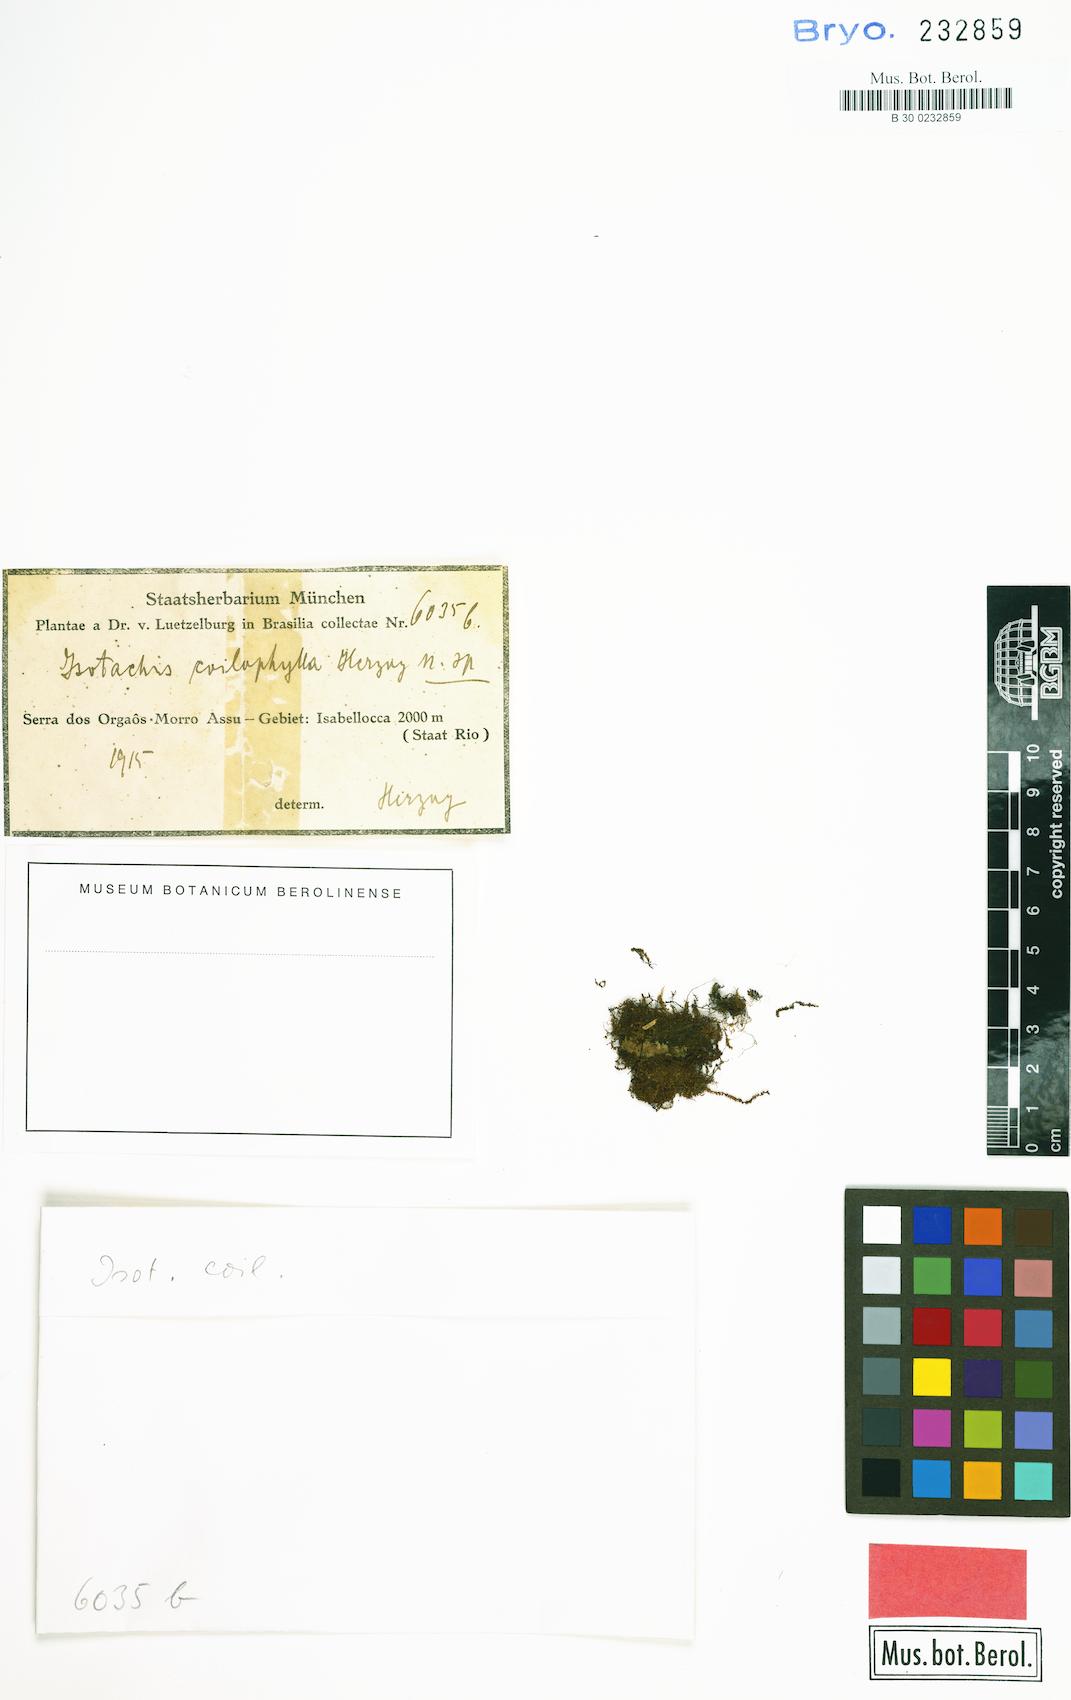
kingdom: Plantae
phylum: Marchantiophyta
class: Jungermanniopsida
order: Jungermanniales
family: Balantiopsidaceae
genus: Isotachis
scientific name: Isotachis multiceps
